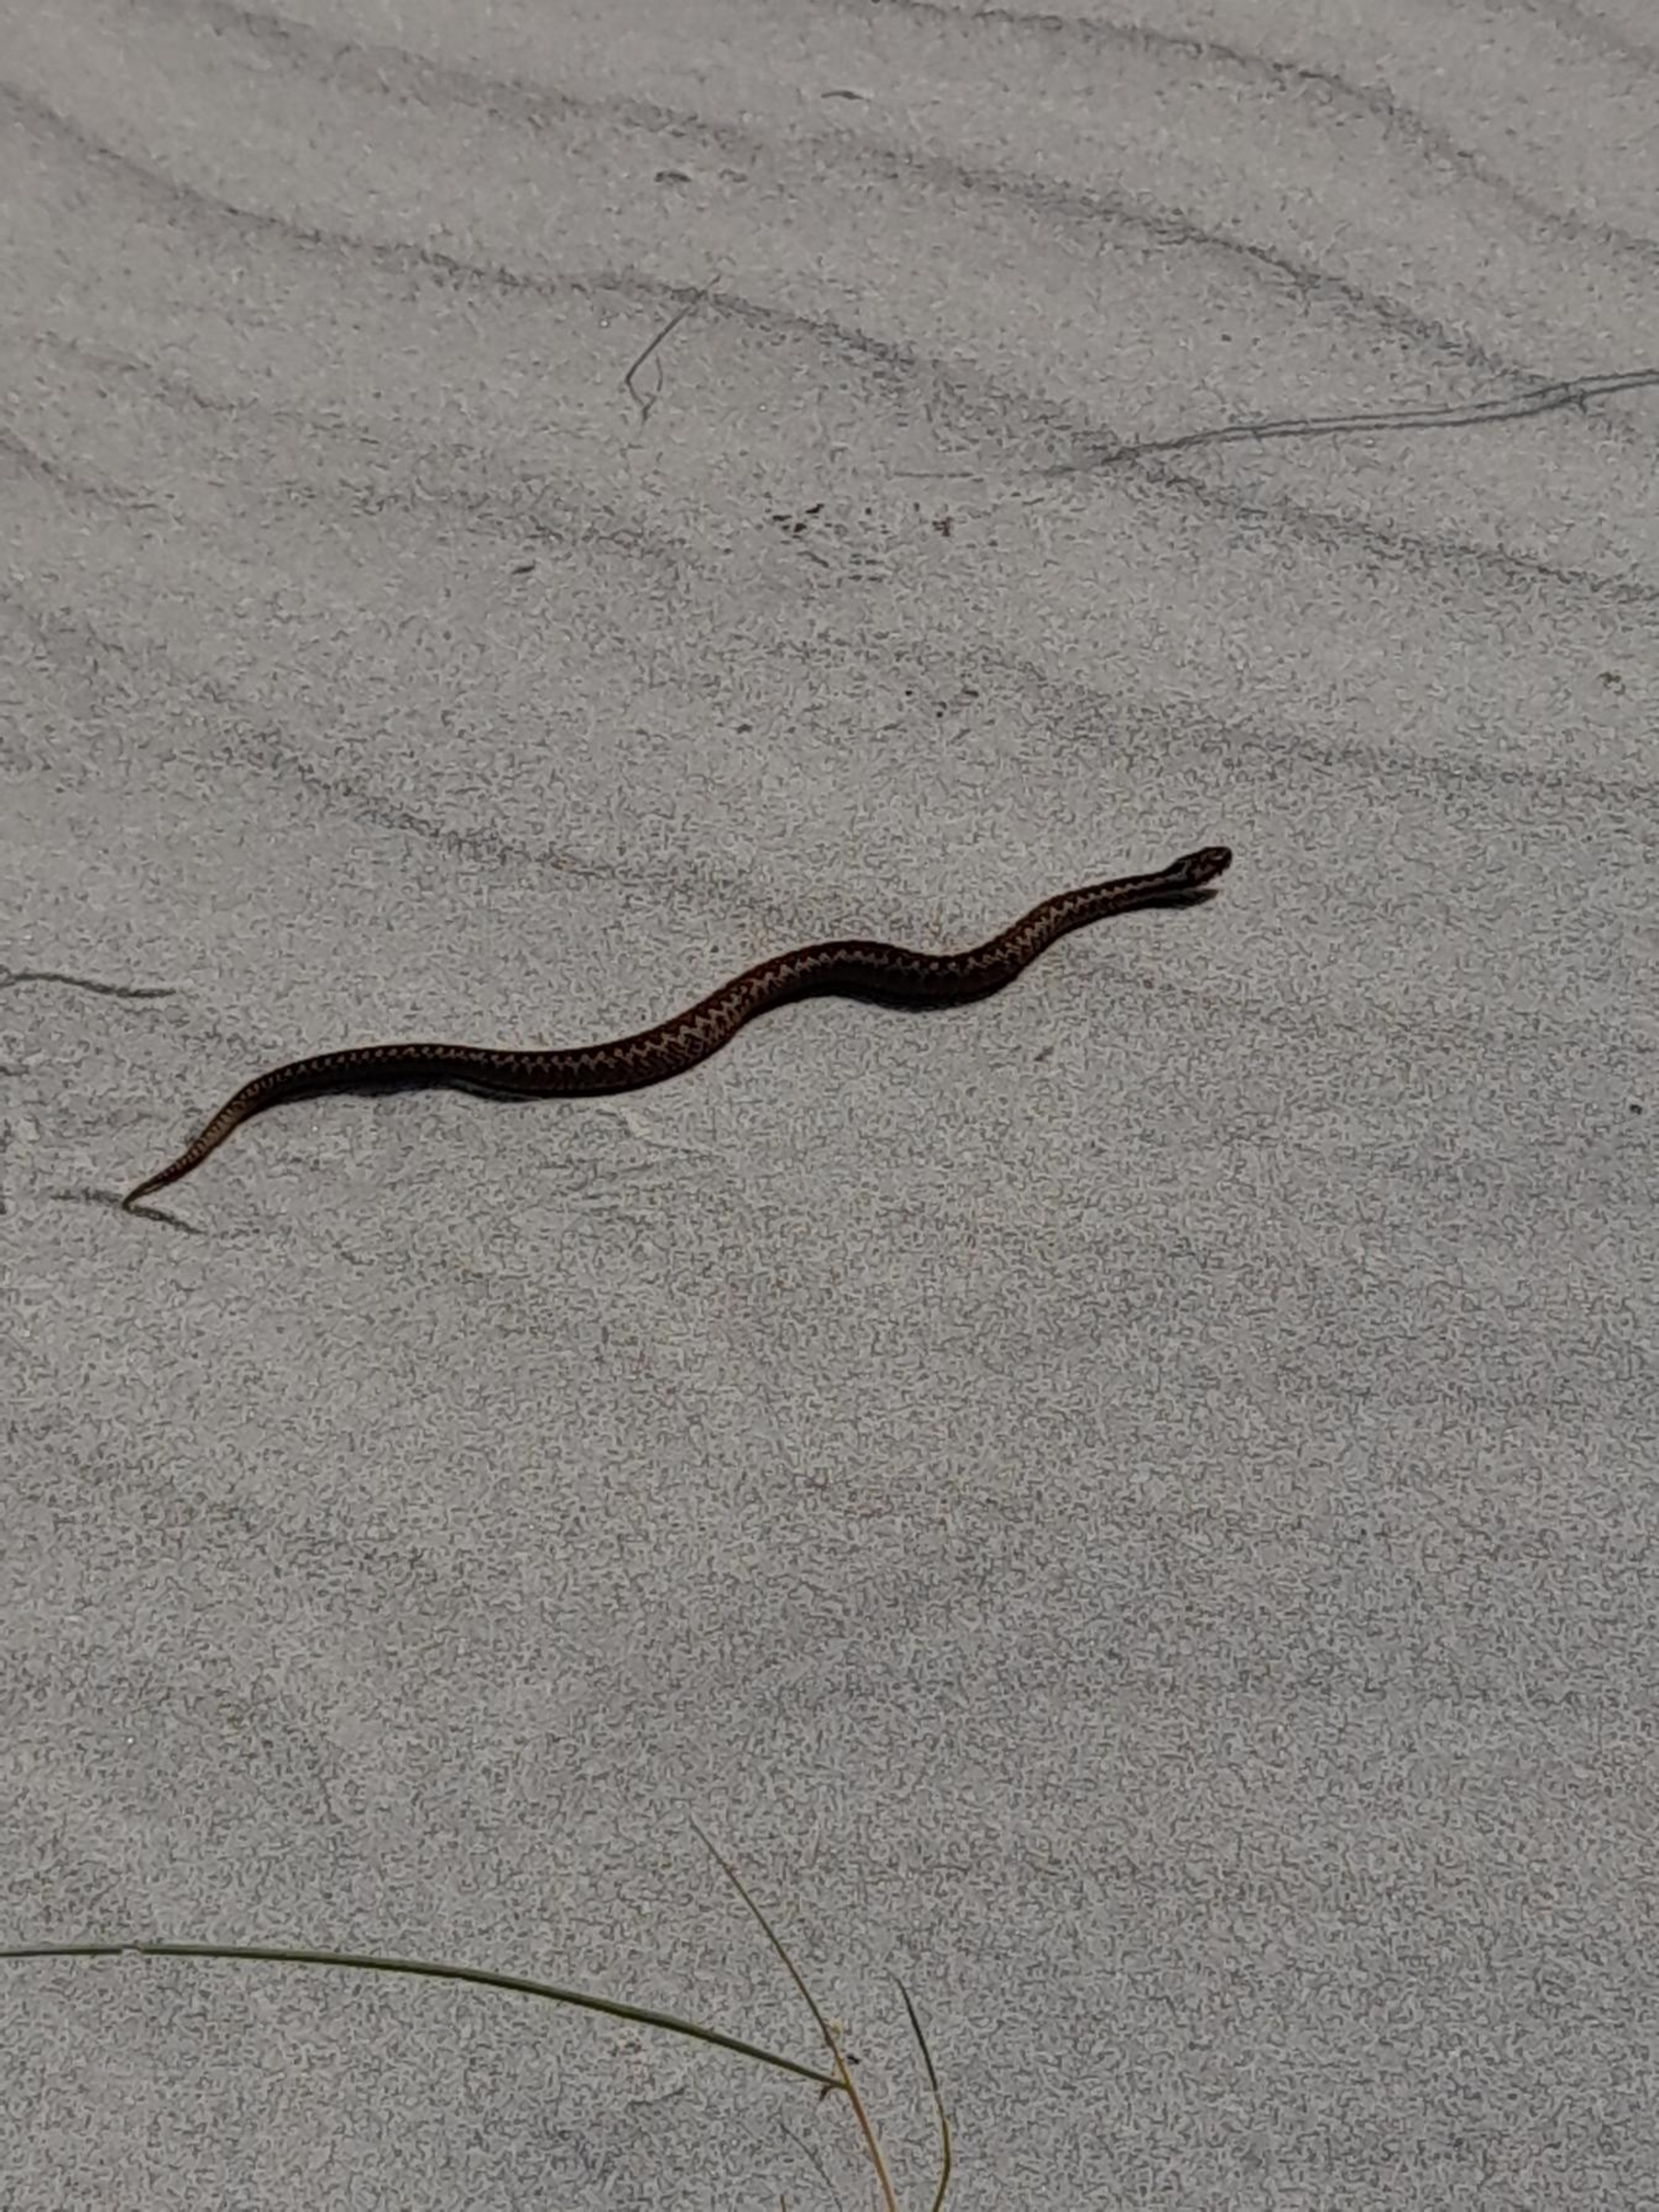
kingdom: Animalia
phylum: Chordata
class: Squamata
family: Viperidae
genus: Vipera
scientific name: Vipera berus
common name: Hugorm
